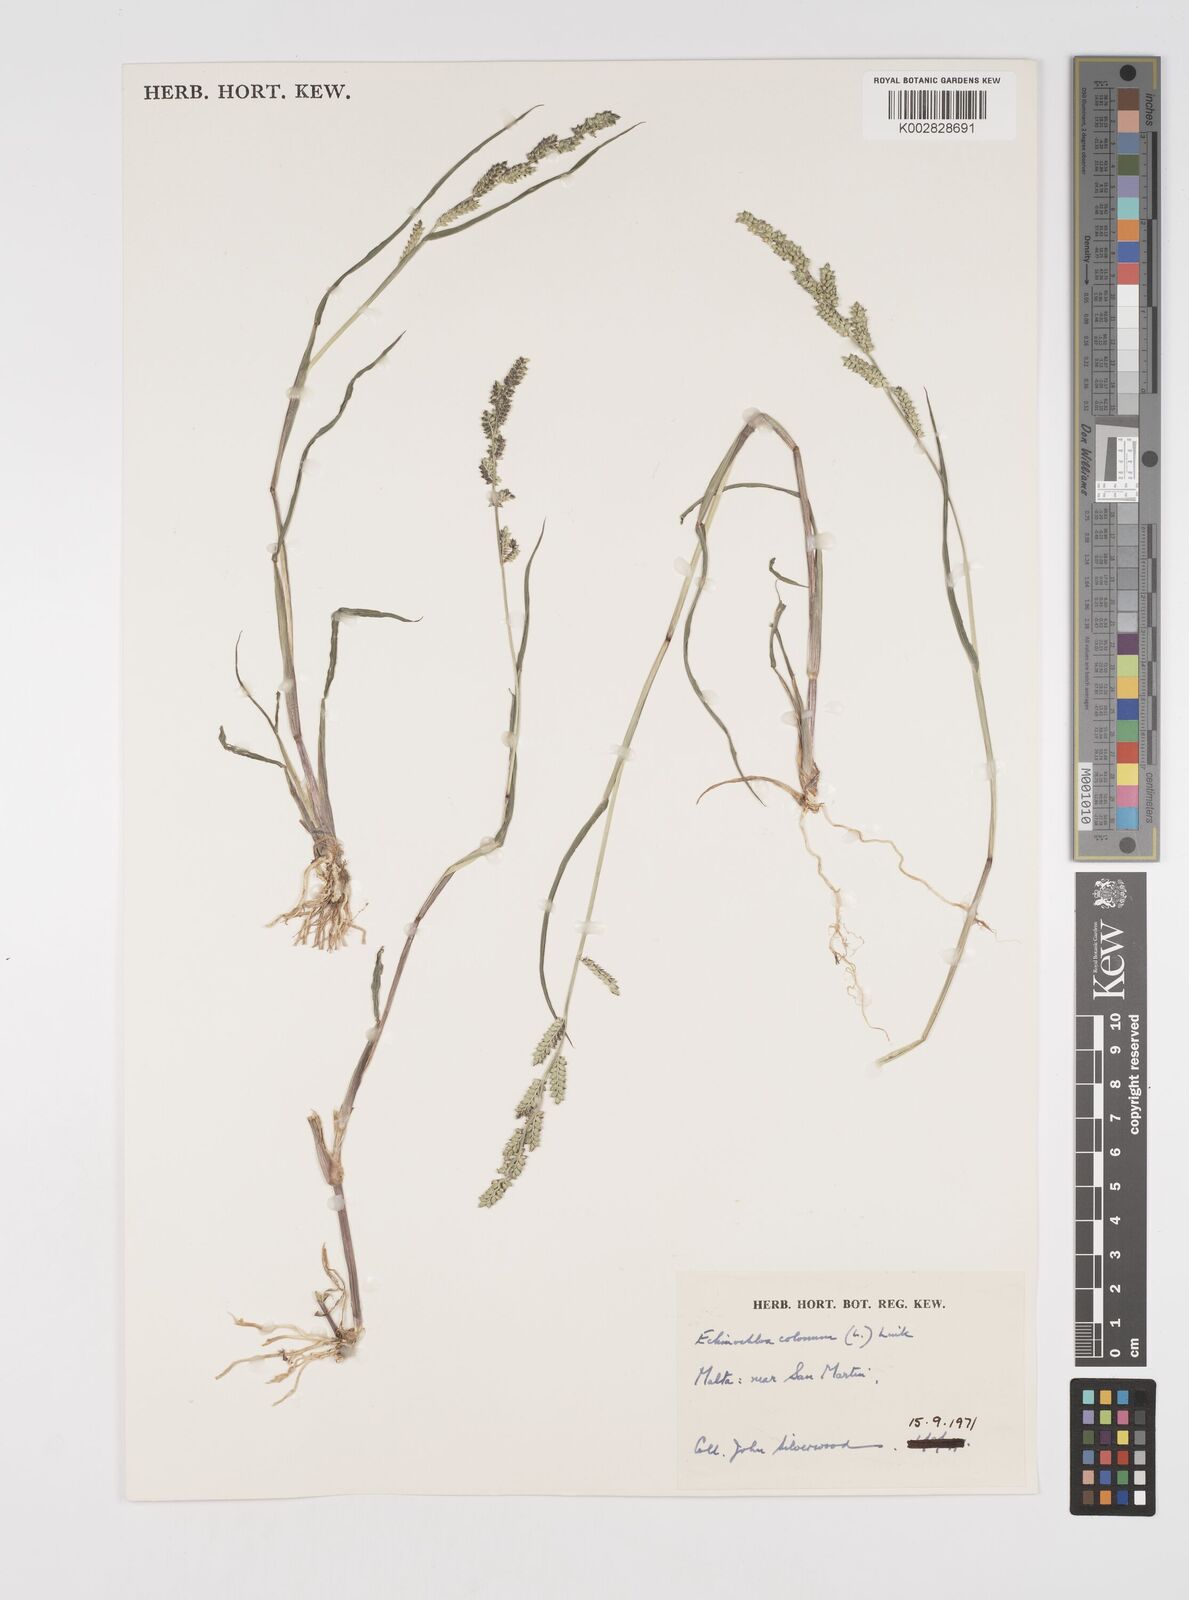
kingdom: Plantae
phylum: Tracheophyta
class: Liliopsida
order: Poales
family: Poaceae
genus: Echinochloa
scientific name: Echinochloa colonum
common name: Jungle rice
